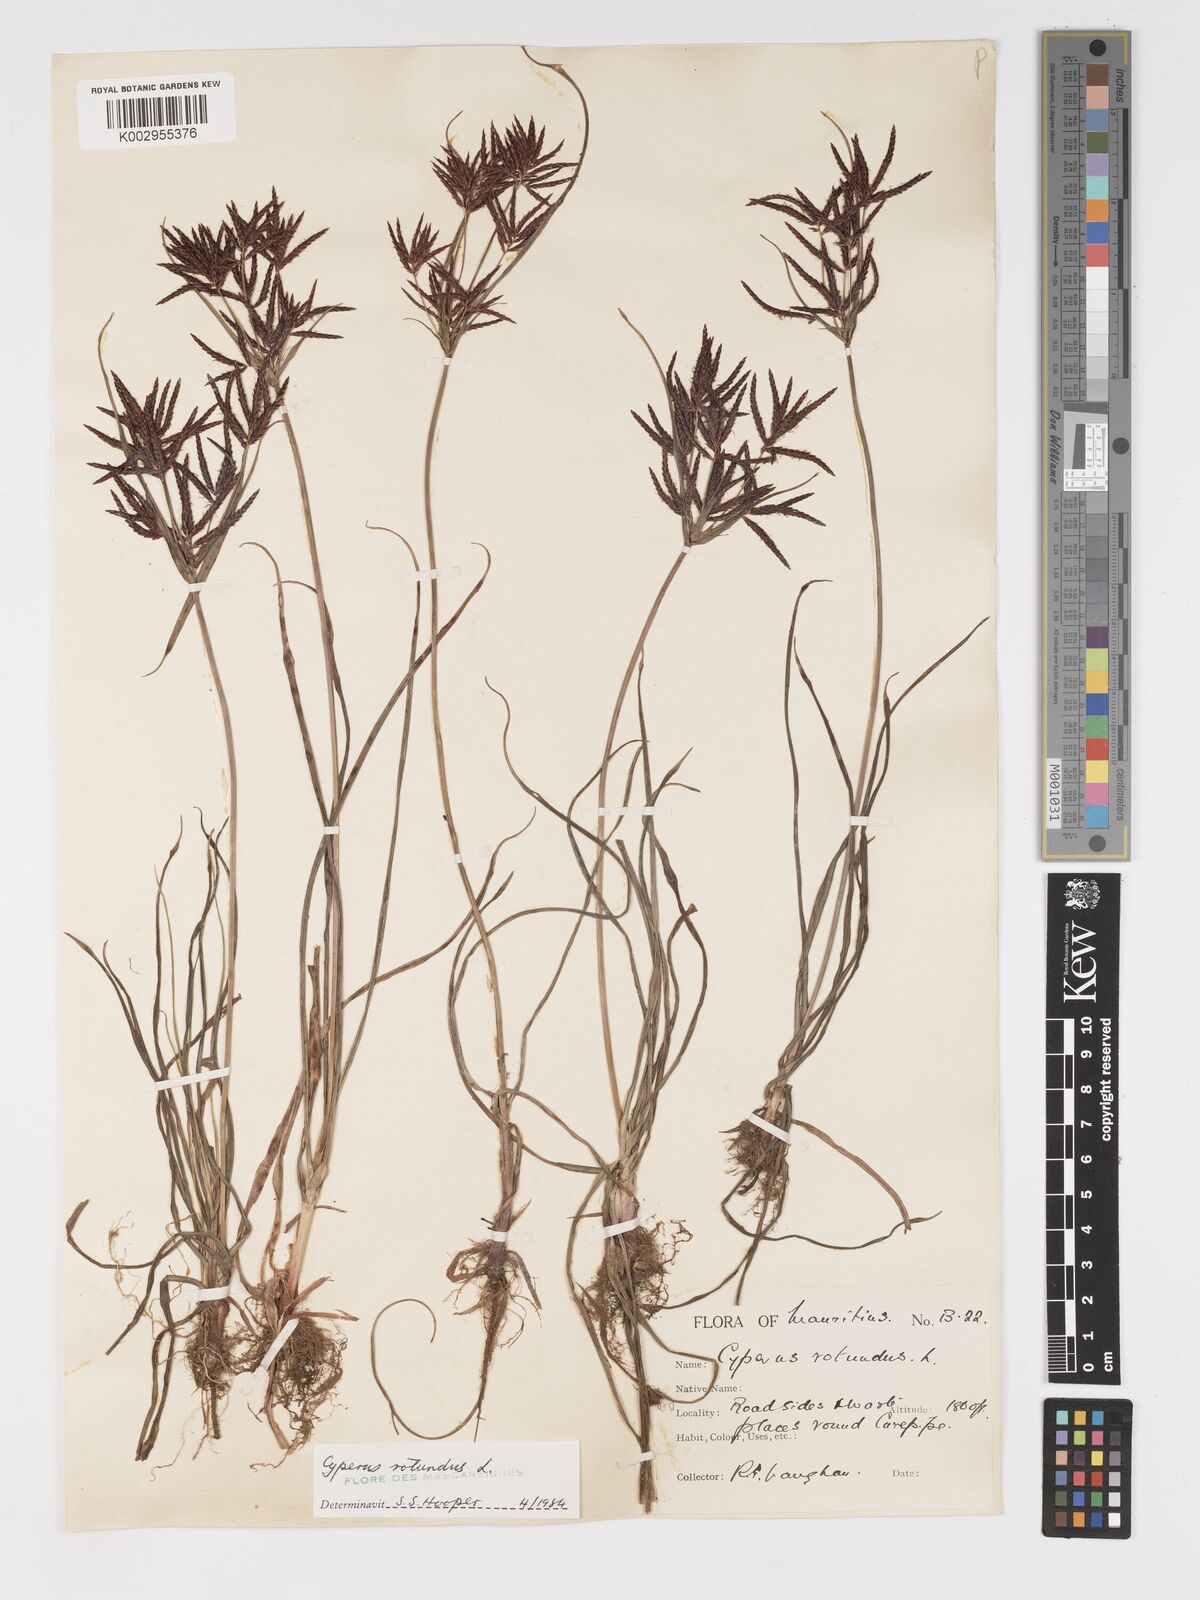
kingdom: Plantae
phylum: Tracheophyta
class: Liliopsida
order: Poales
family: Cyperaceae
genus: Cyperus
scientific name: Cyperus rotundus
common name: Nutgrass
